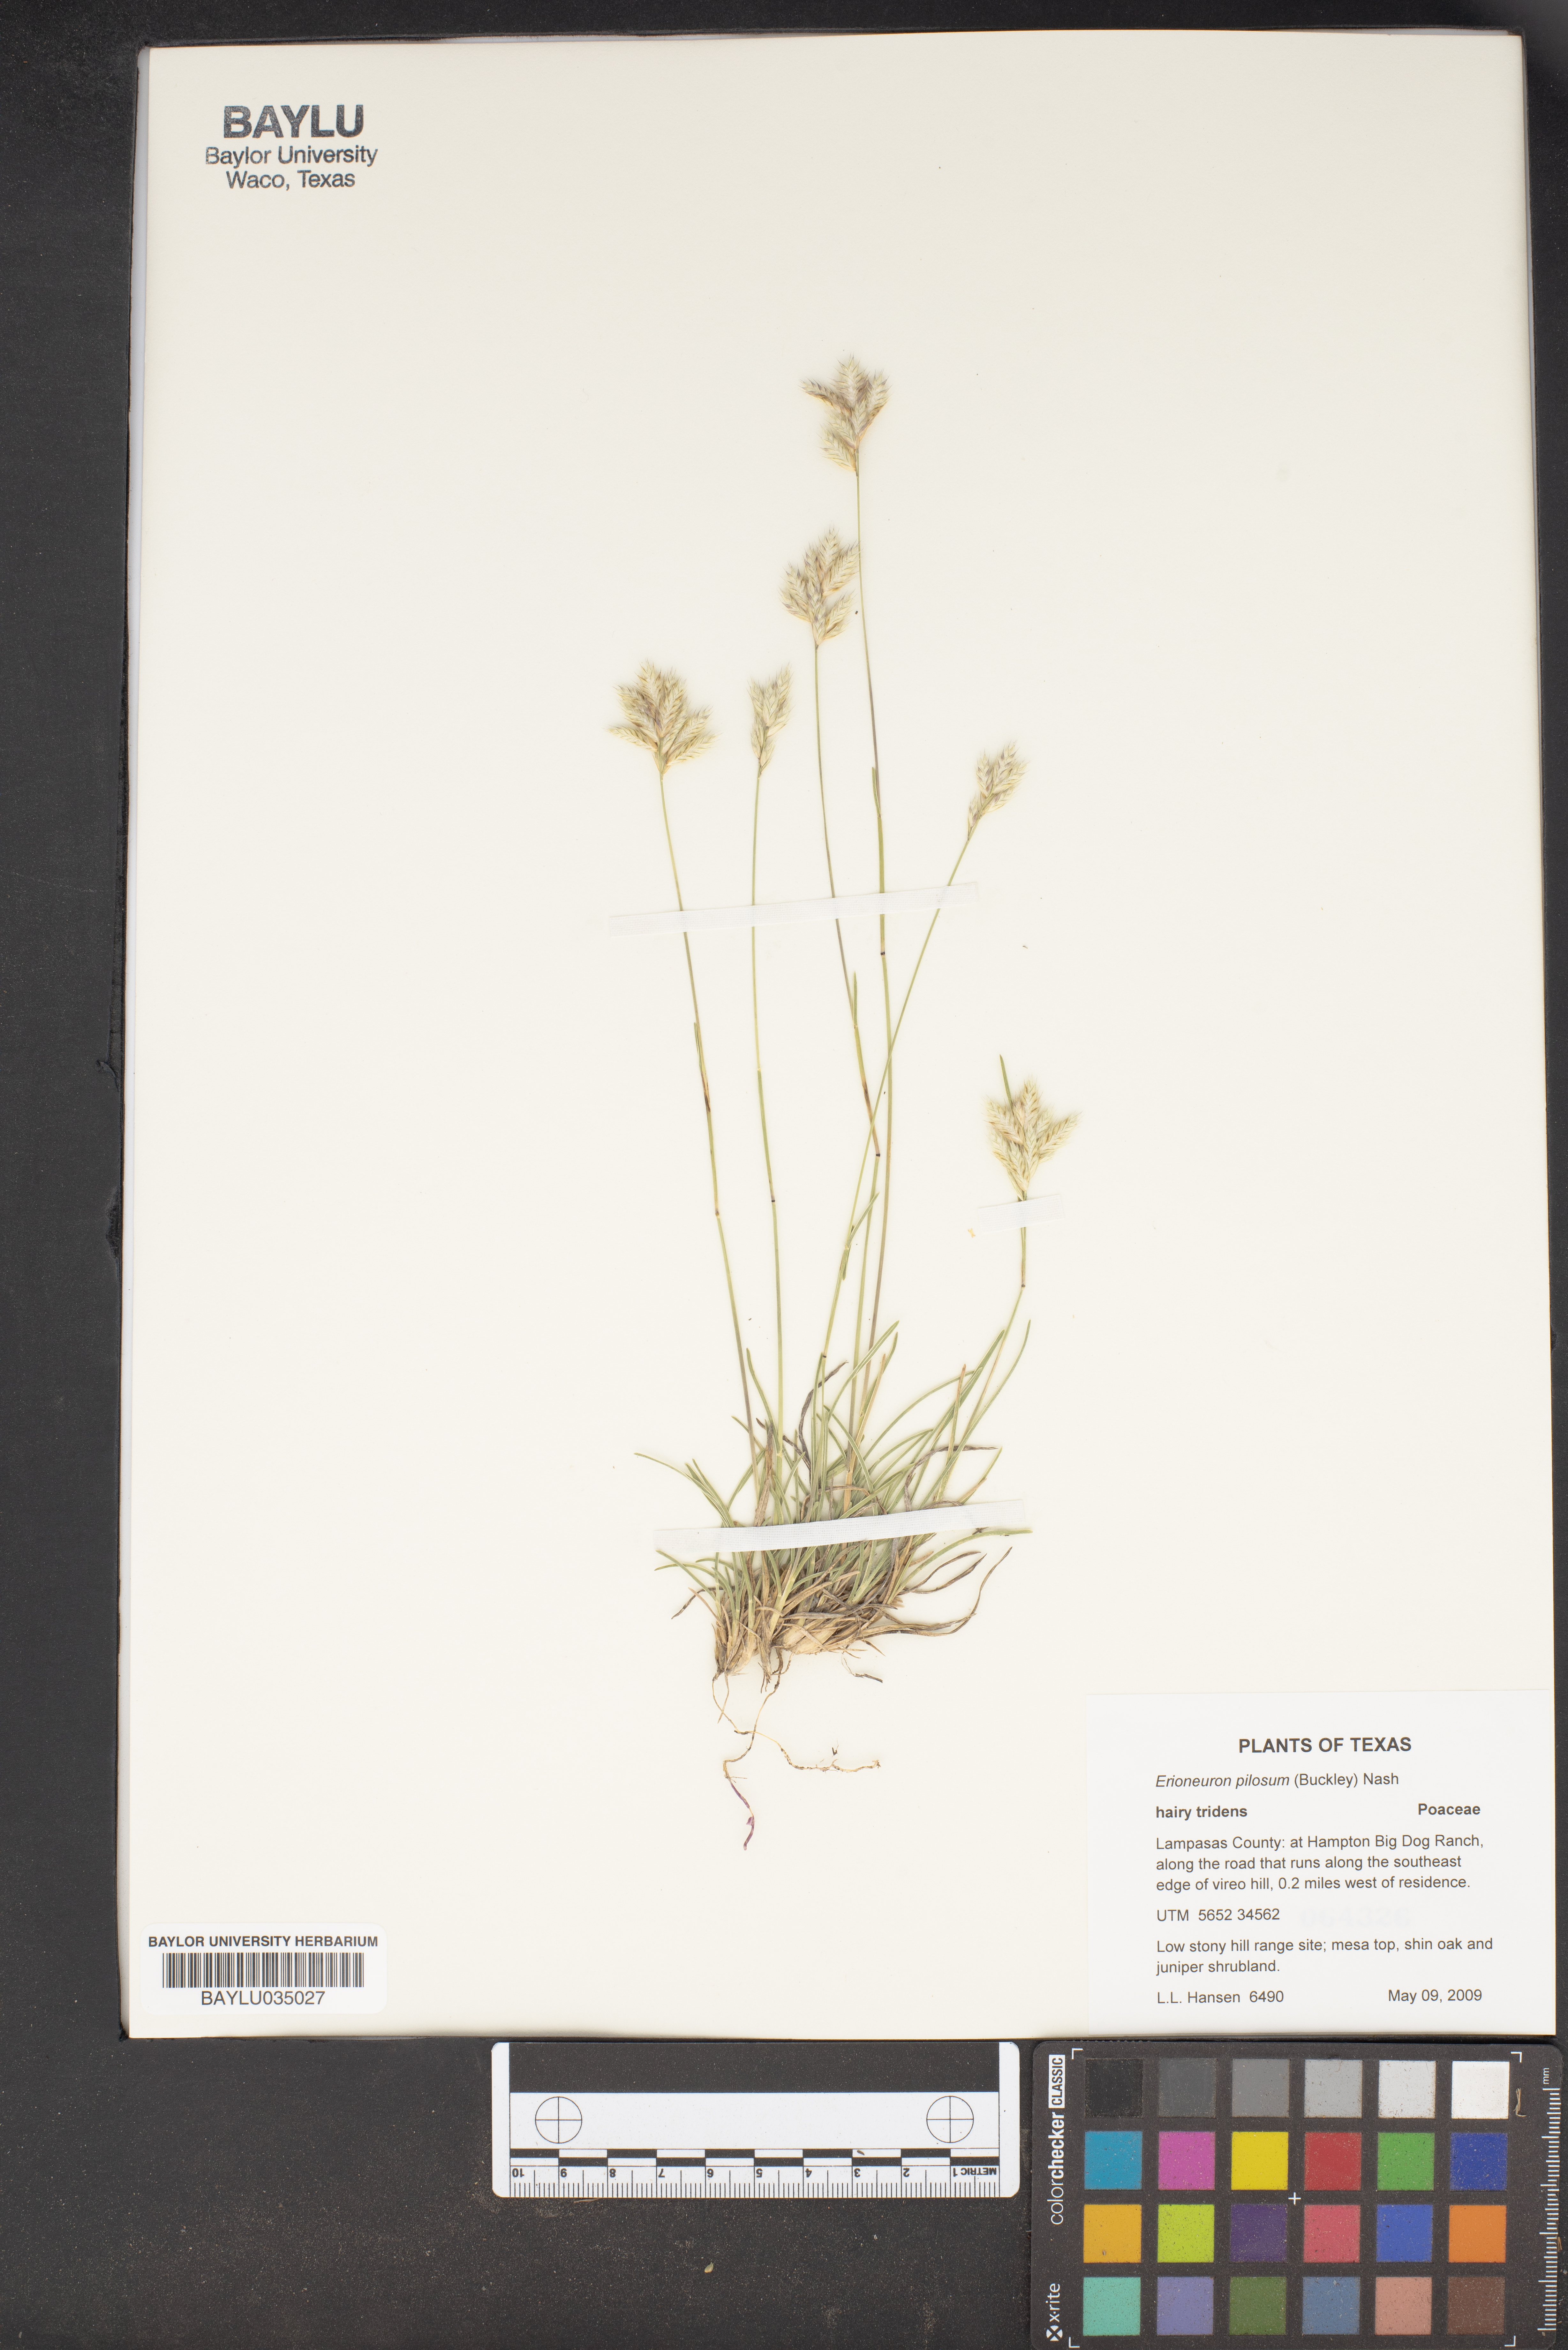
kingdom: Plantae
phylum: Tracheophyta
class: Liliopsida
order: Poales
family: Poaceae
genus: Erioneuron
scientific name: Erioneuron pilosum
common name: Hairy woolly grass
